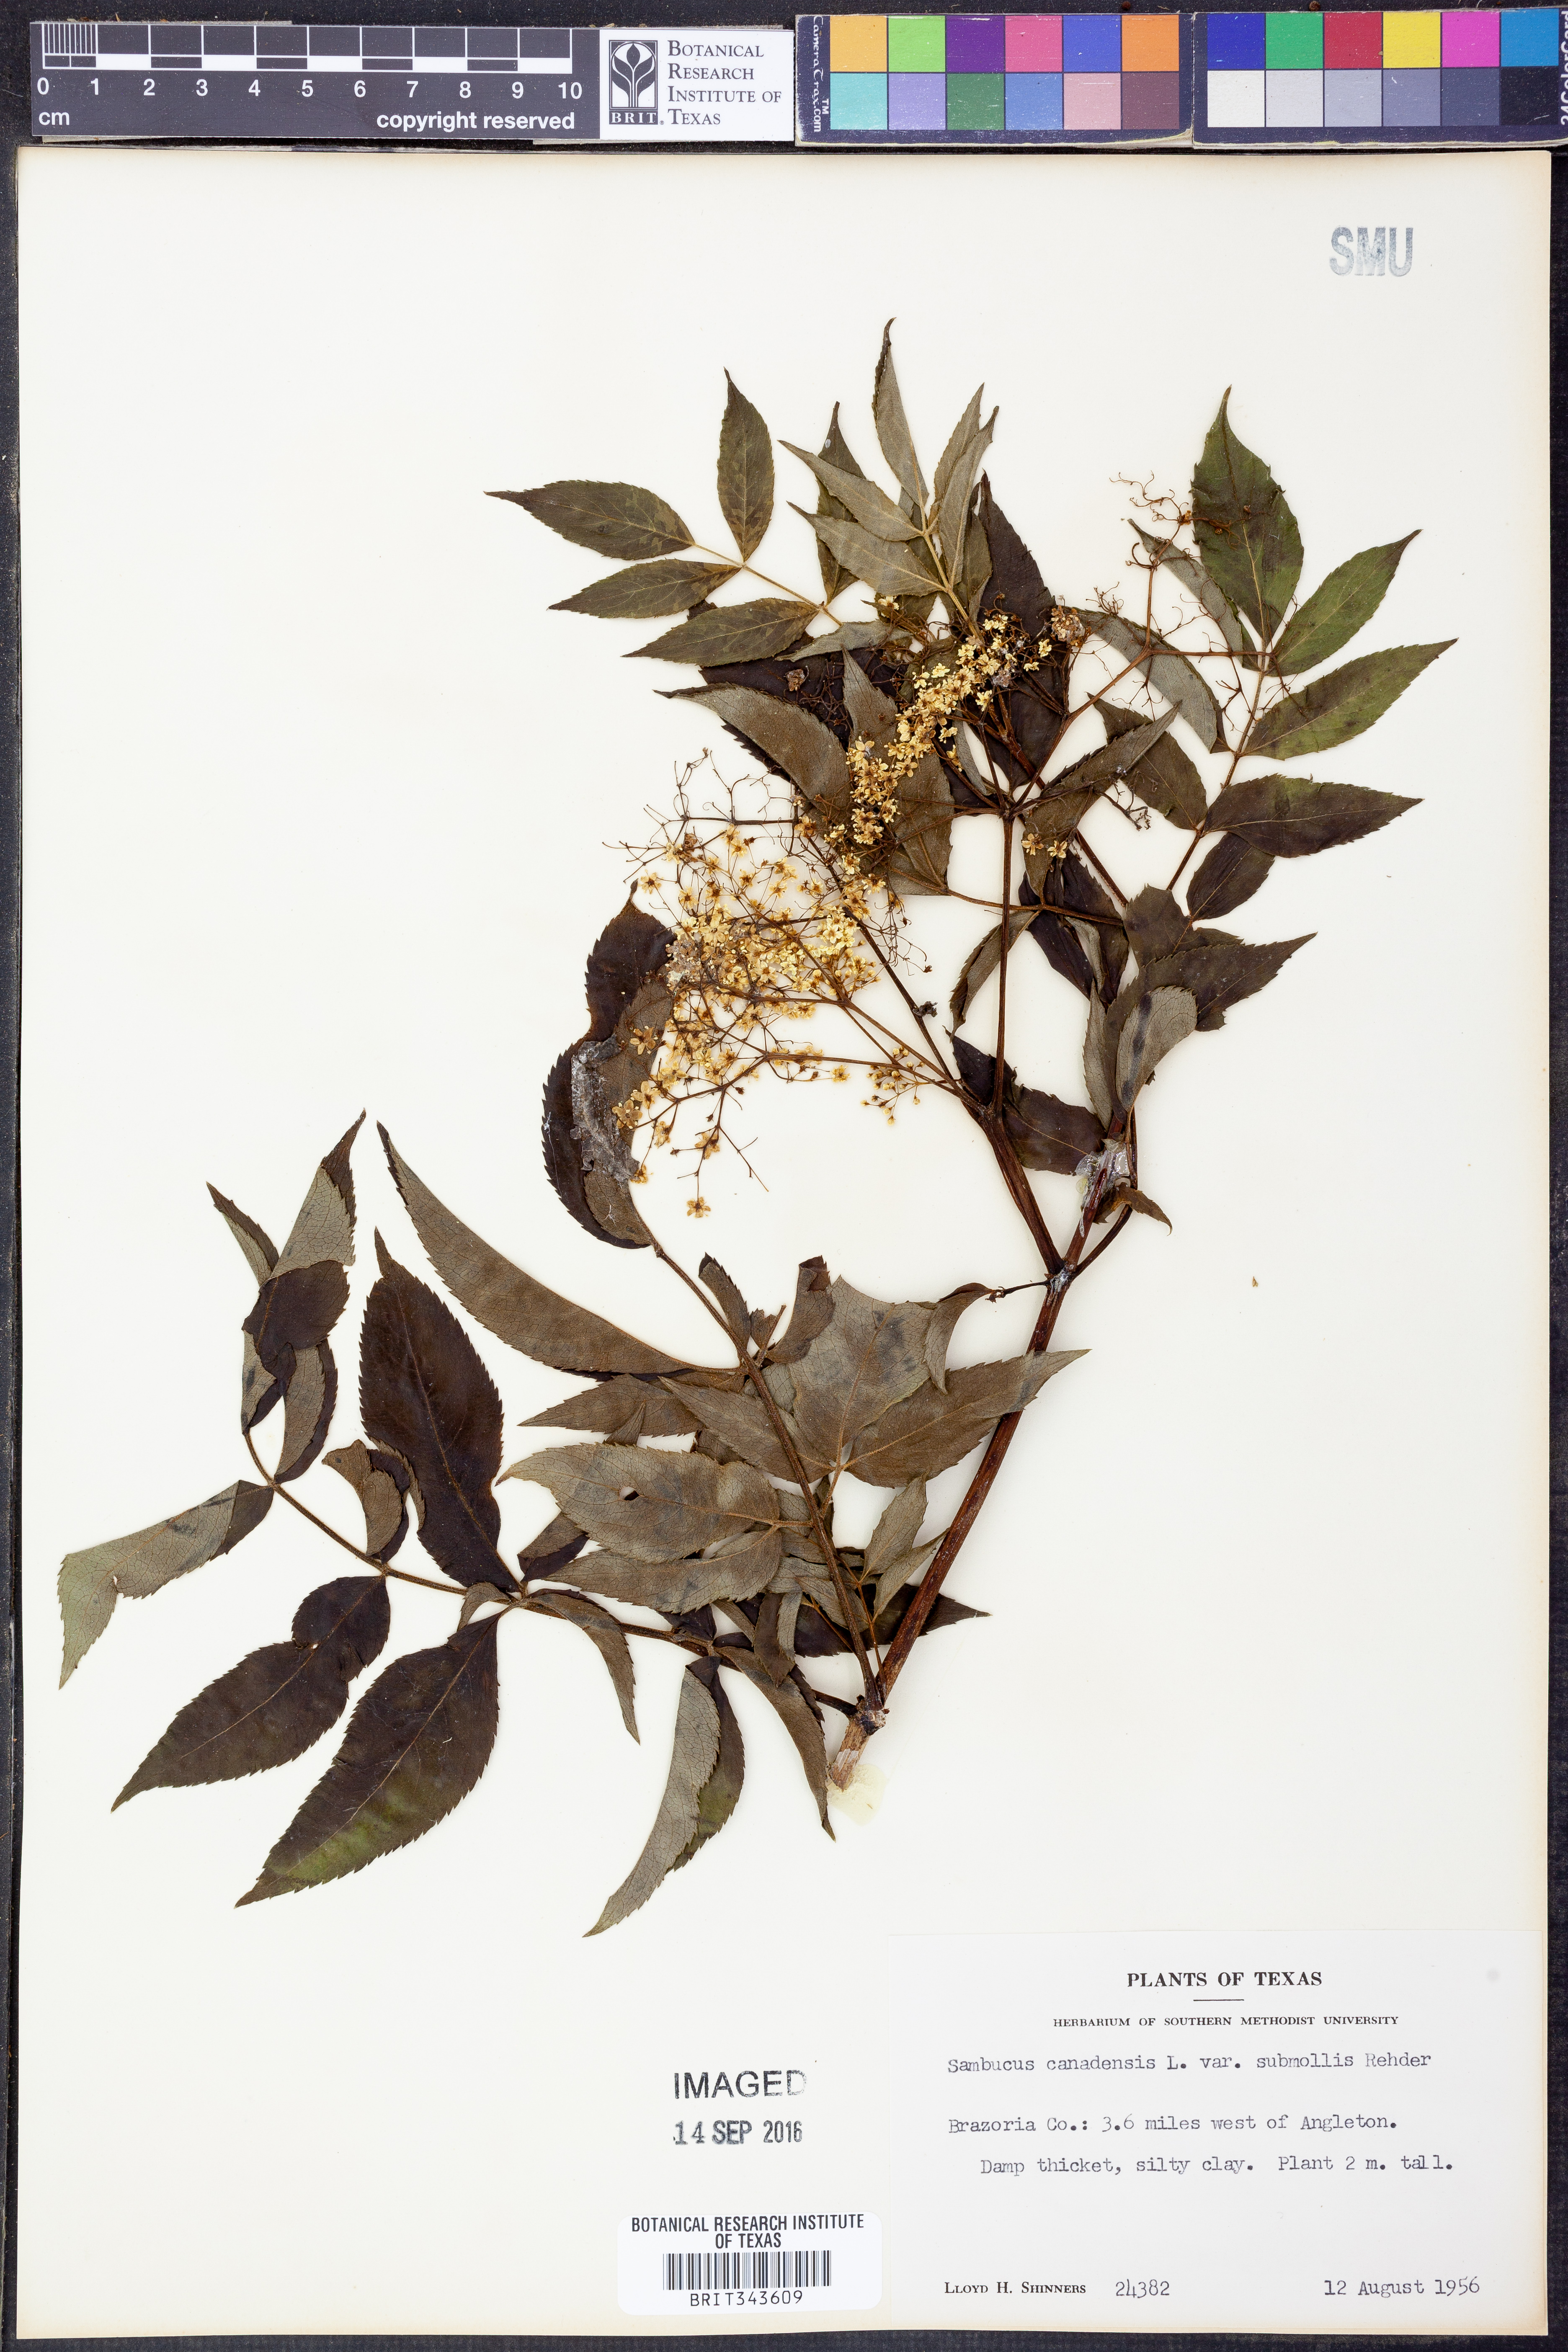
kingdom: Plantae
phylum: Tracheophyta
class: Magnoliopsida
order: Dipsacales
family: Viburnaceae
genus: Sambucus
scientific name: Sambucus canadensis
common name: American elder
